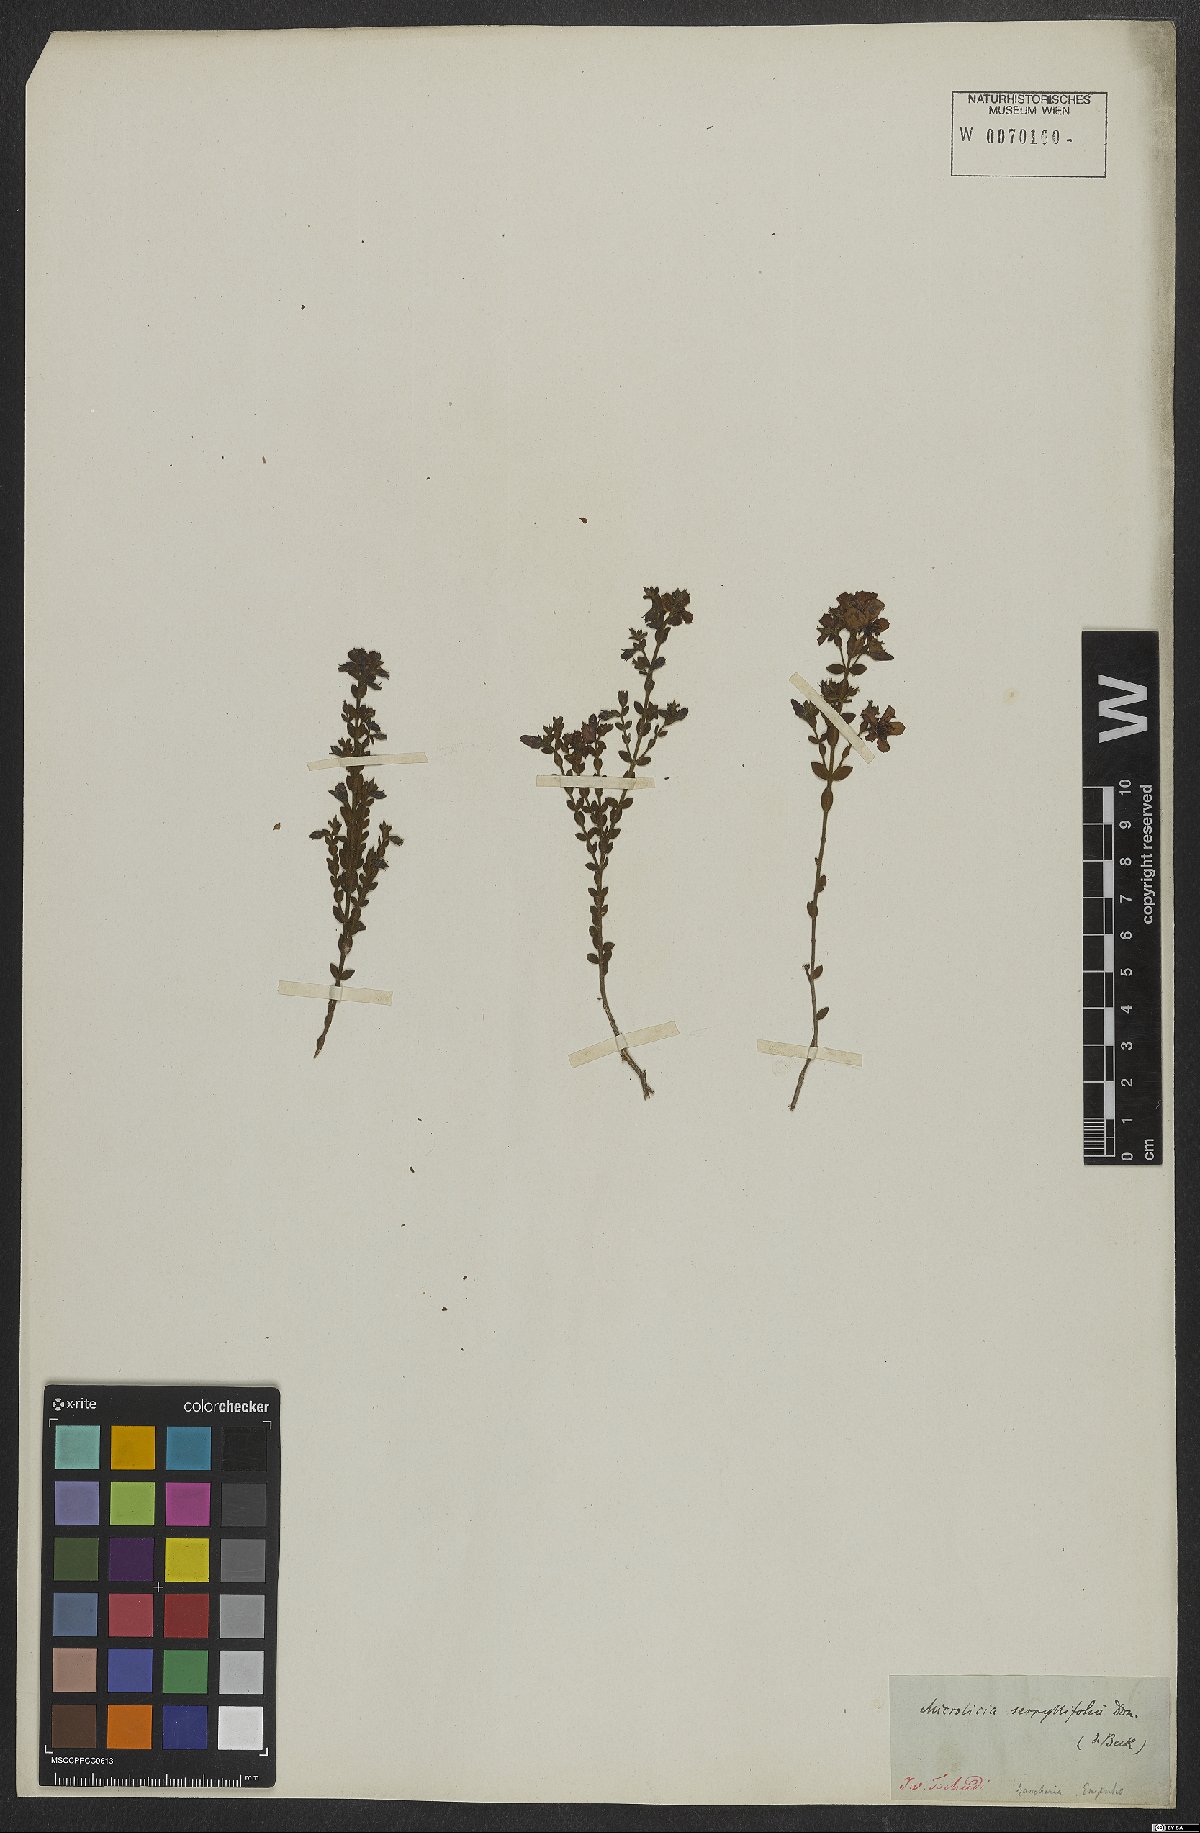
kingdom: Plantae
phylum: Tracheophyta
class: Magnoliopsida
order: Myrtales
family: Melastomataceae
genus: Microlicia
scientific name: Microlicia fulva
